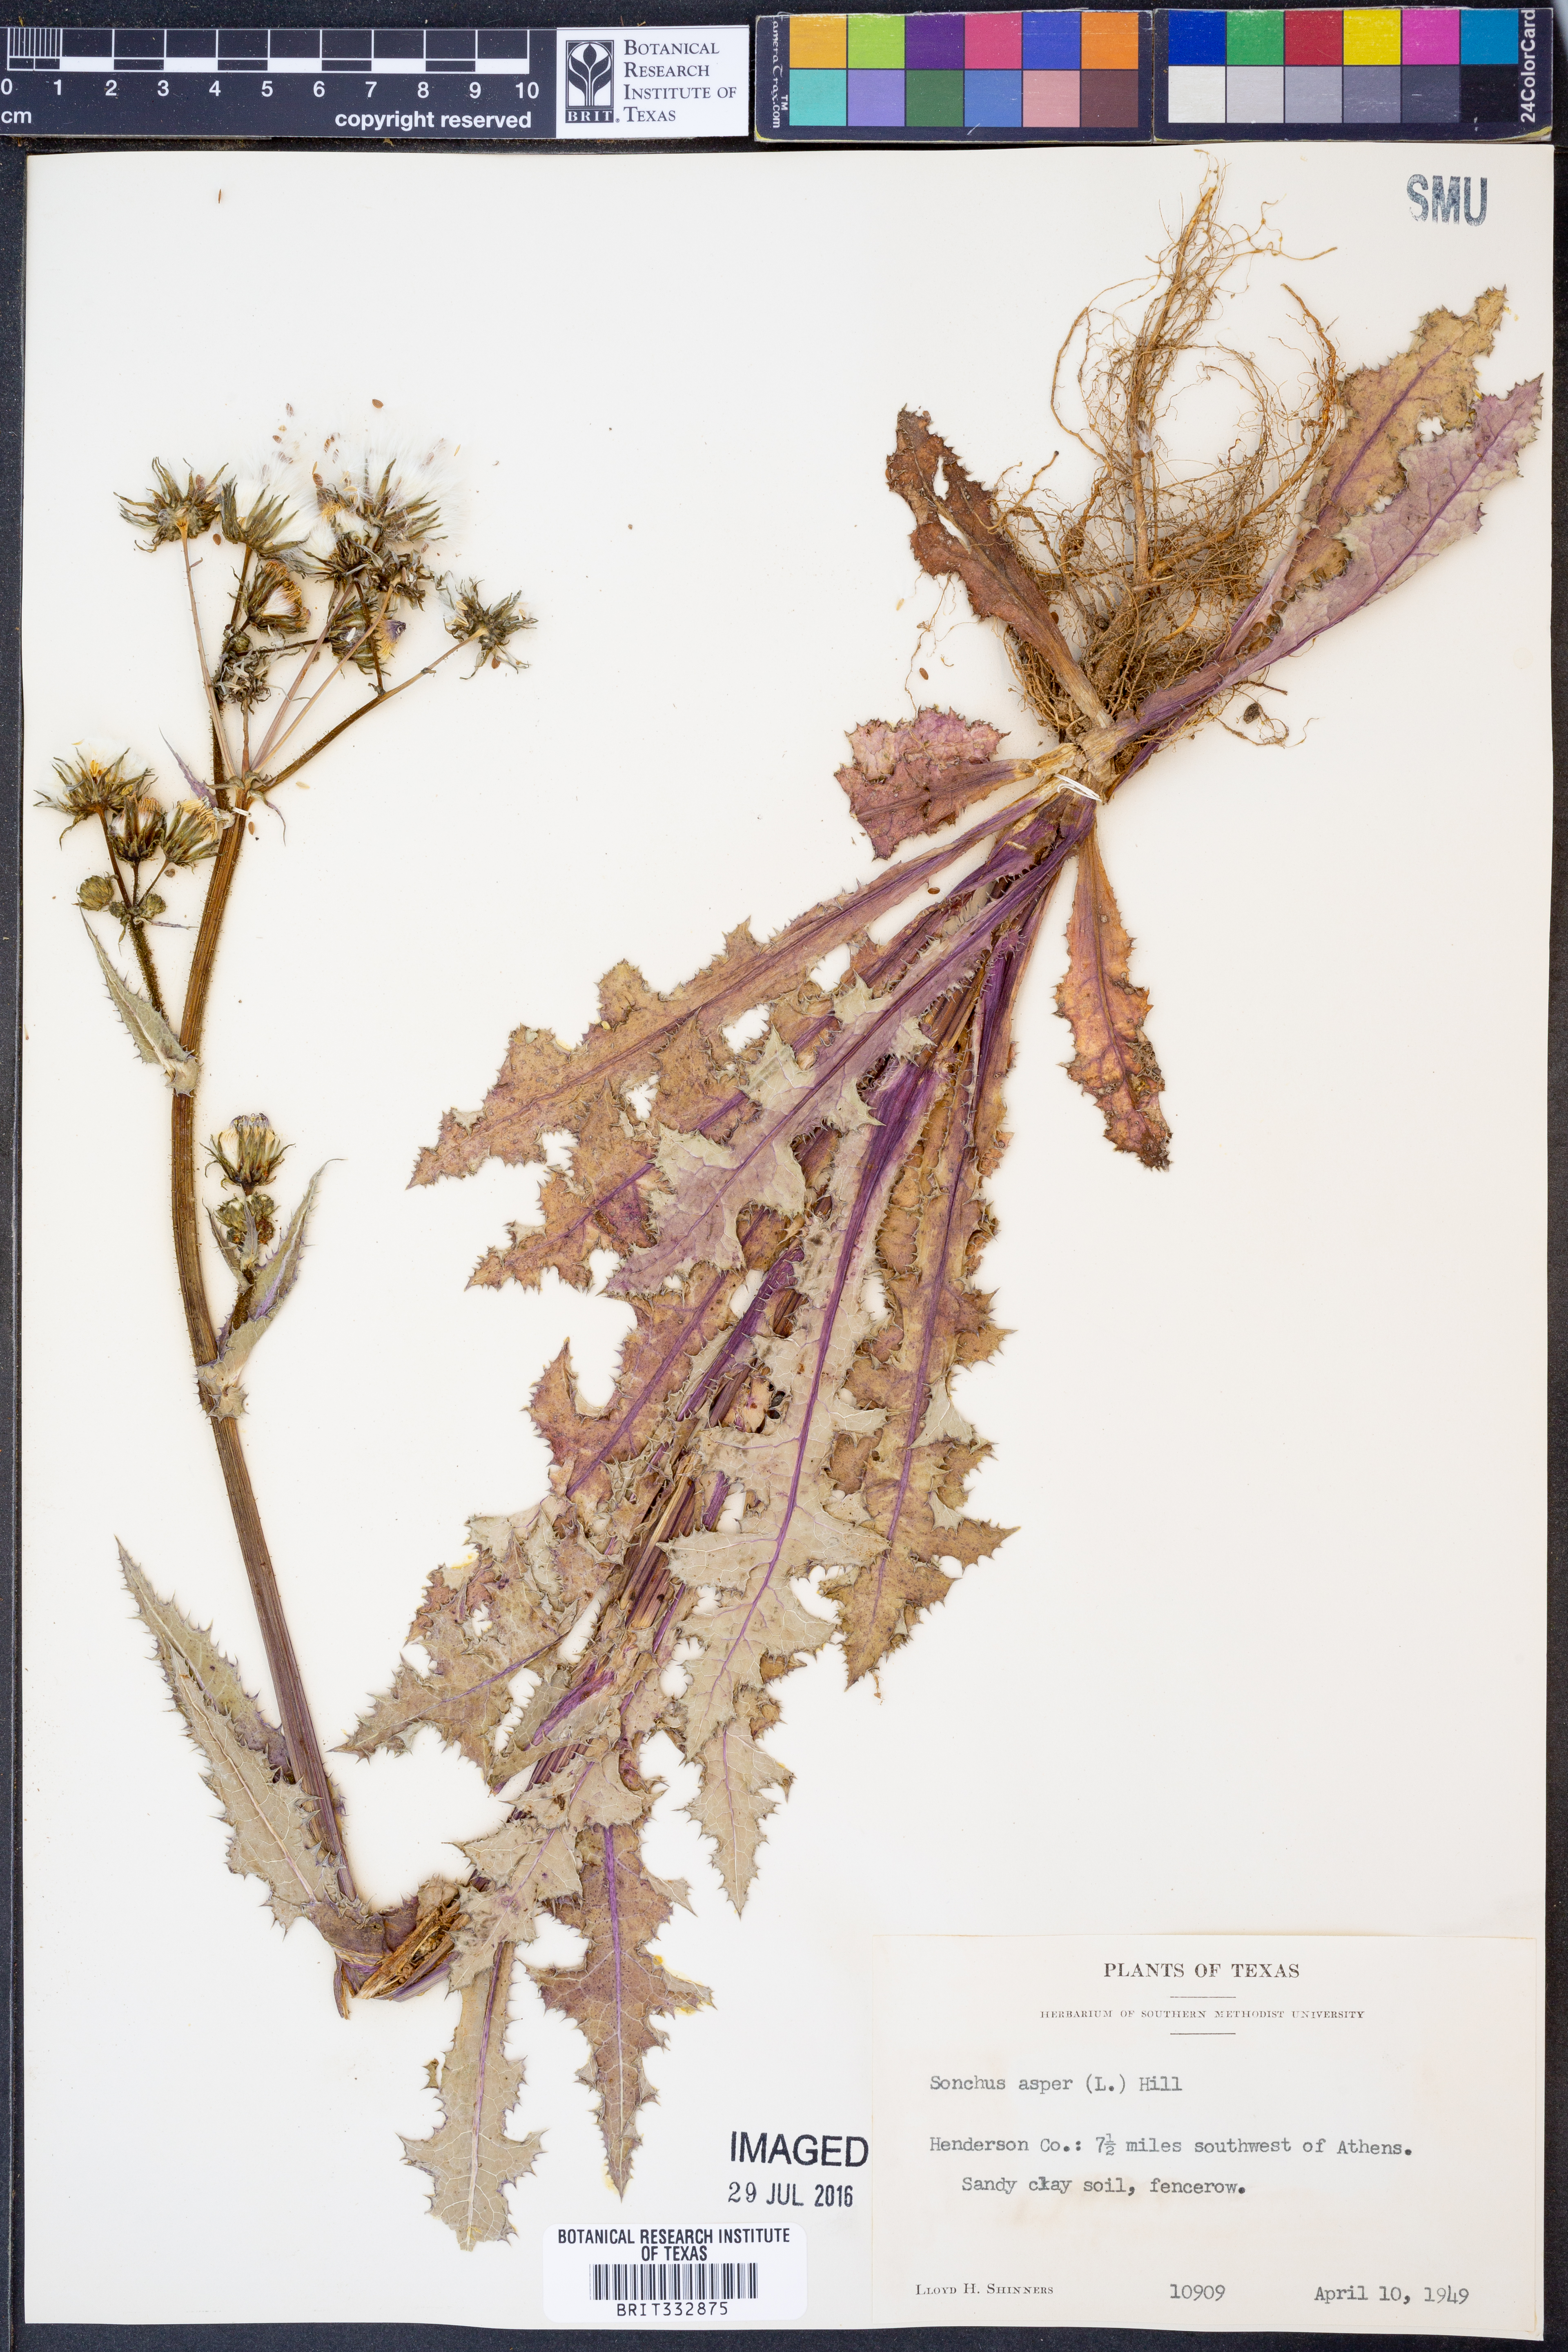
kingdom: Plantae
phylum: Tracheophyta
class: Magnoliopsida
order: Asterales
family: Asteraceae
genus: Sonchus
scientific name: Sonchus asper
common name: Prickly sow-thistle
